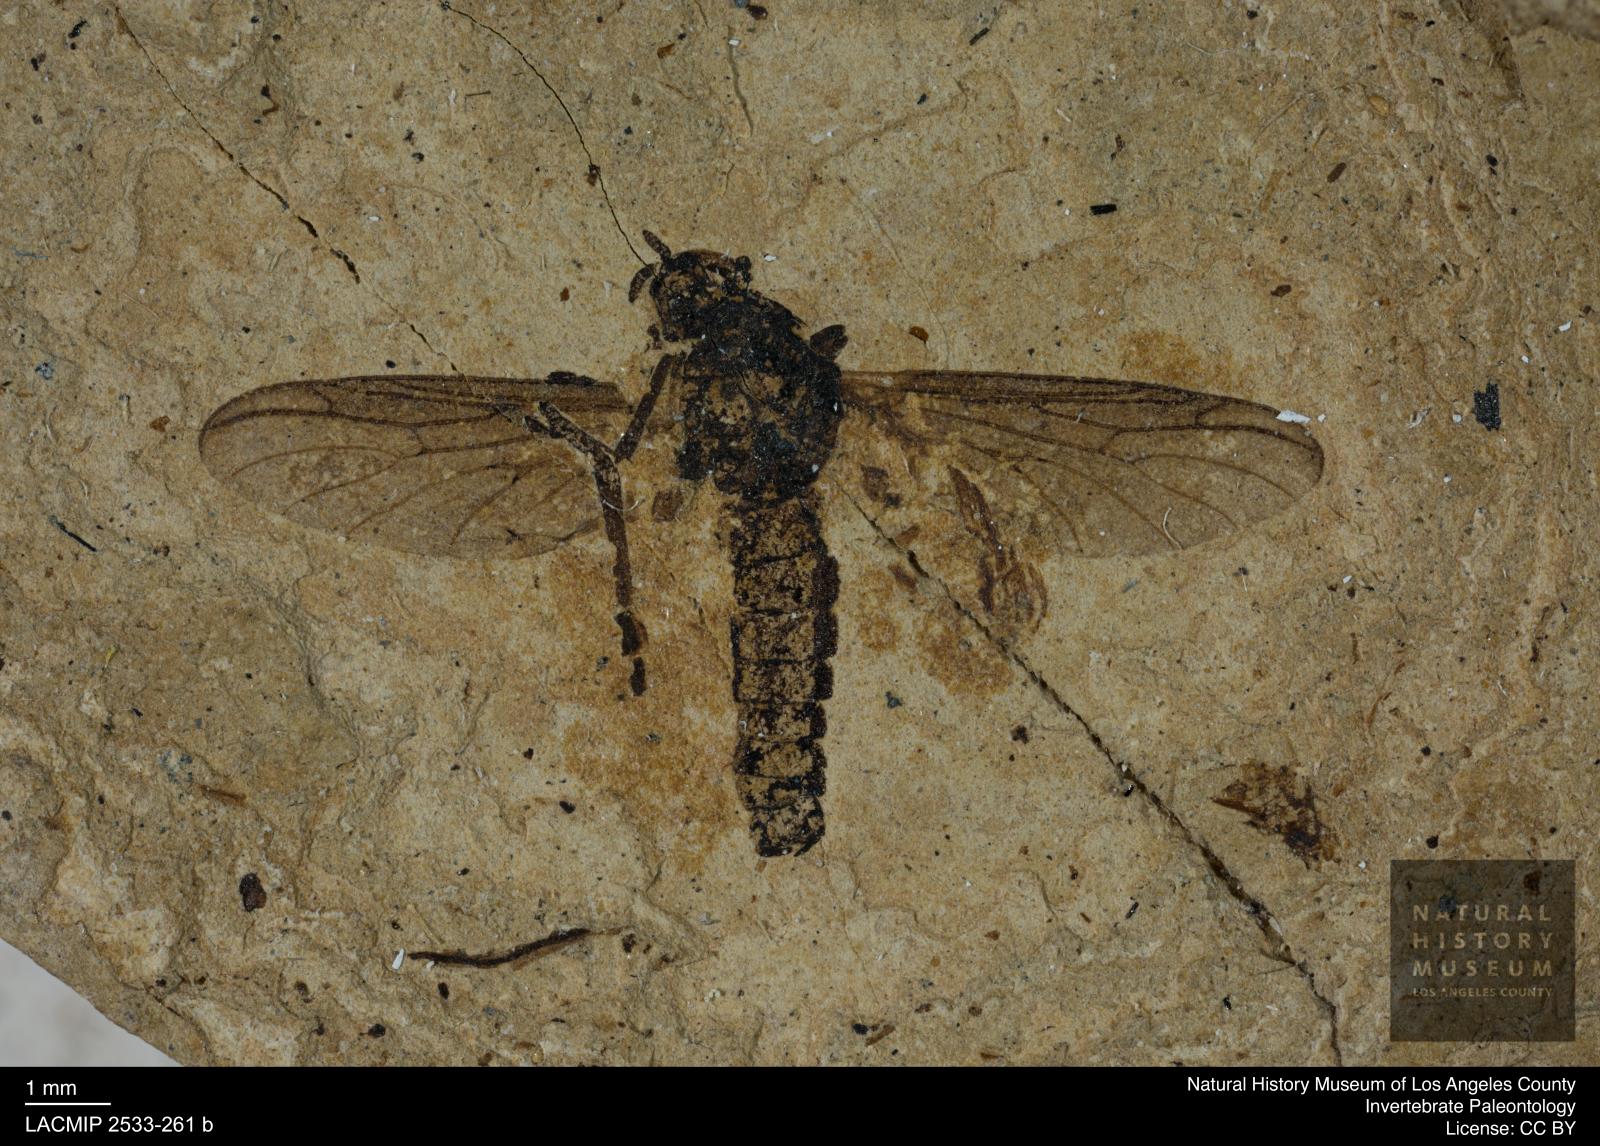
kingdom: Animalia
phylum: Arthropoda
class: Insecta
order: Diptera
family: Bibionidae
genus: Plecia
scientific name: Plecia
